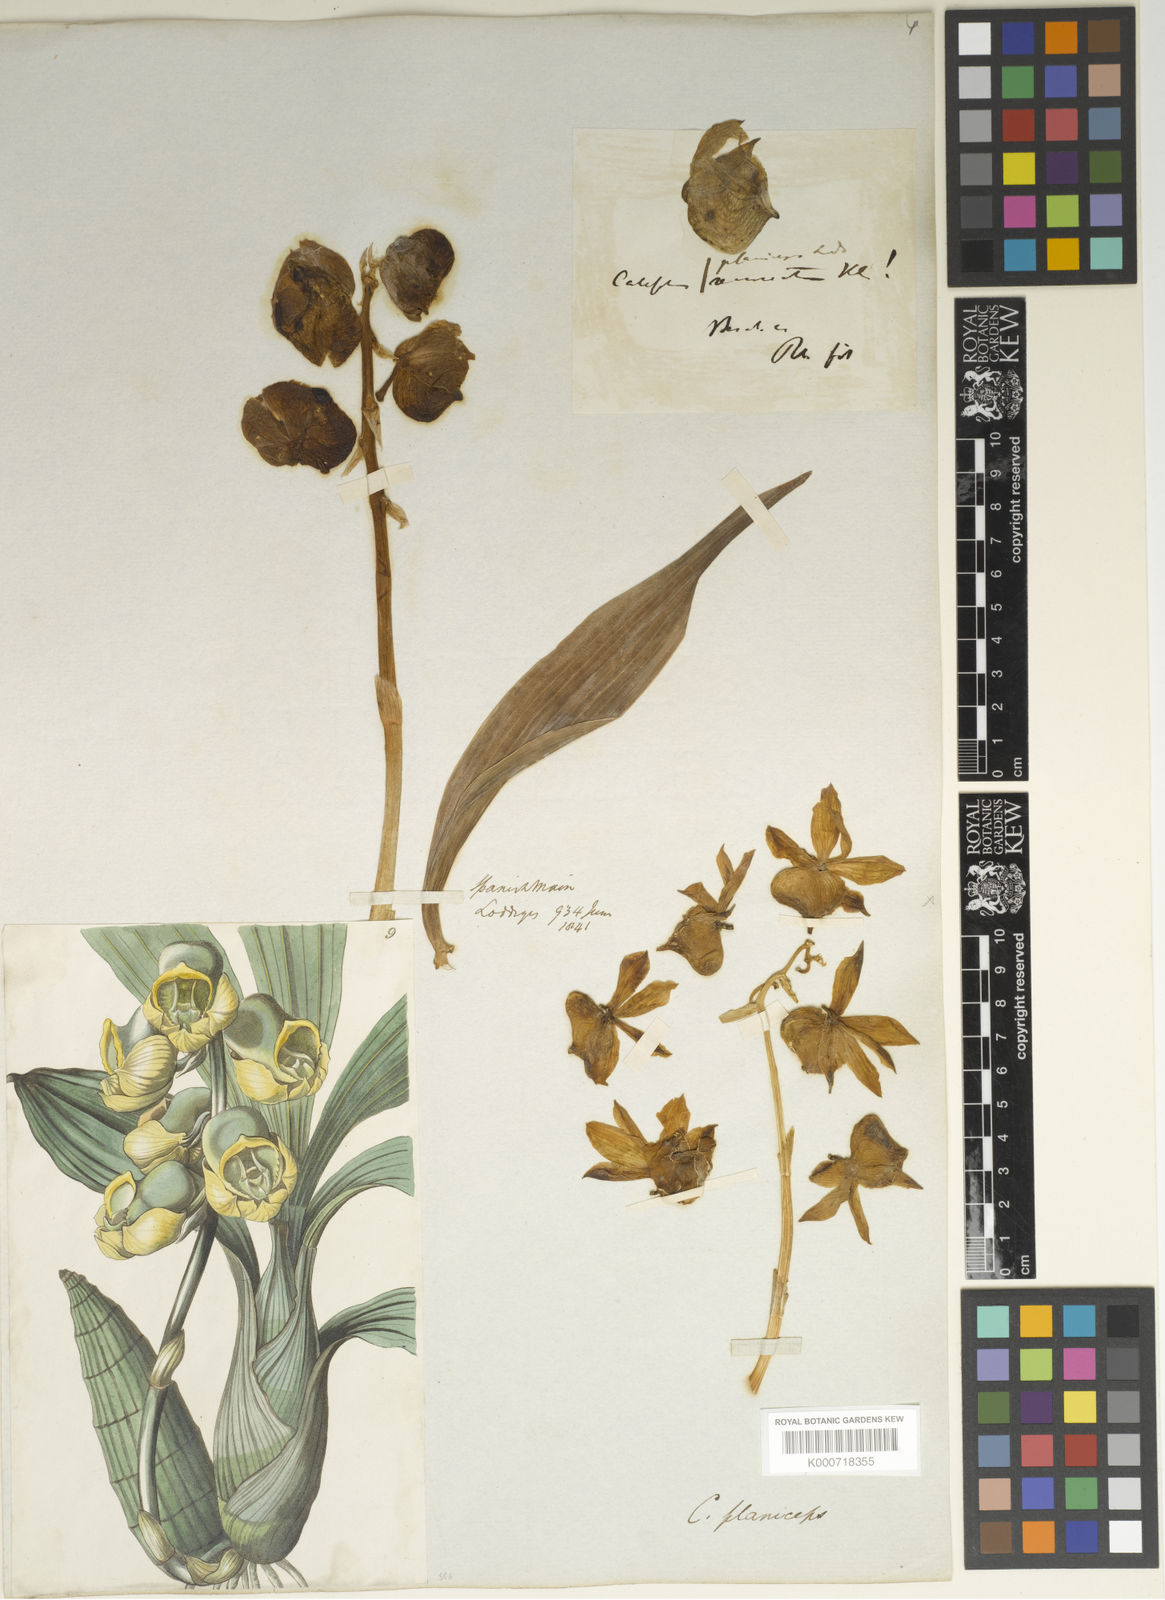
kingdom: Plantae
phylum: Tracheophyta
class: Liliopsida
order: Asparagales
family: Orchidaceae
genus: Catasetum
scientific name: Catasetum planiceps
